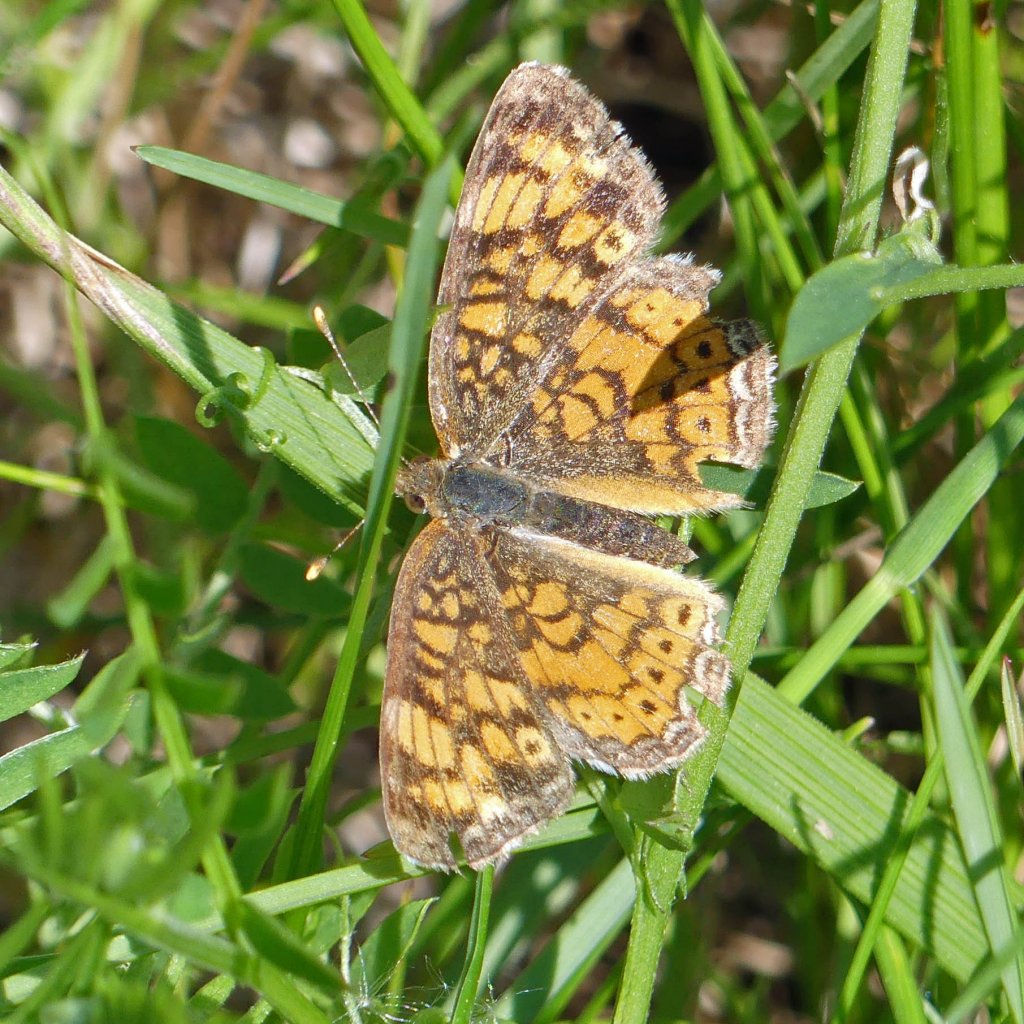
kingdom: Animalia
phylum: Arthropoda
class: Insecta
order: Lepidoptera
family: Nymphalidae
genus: Phyciodes
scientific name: Phyciodes tharos
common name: Northern Crescent
